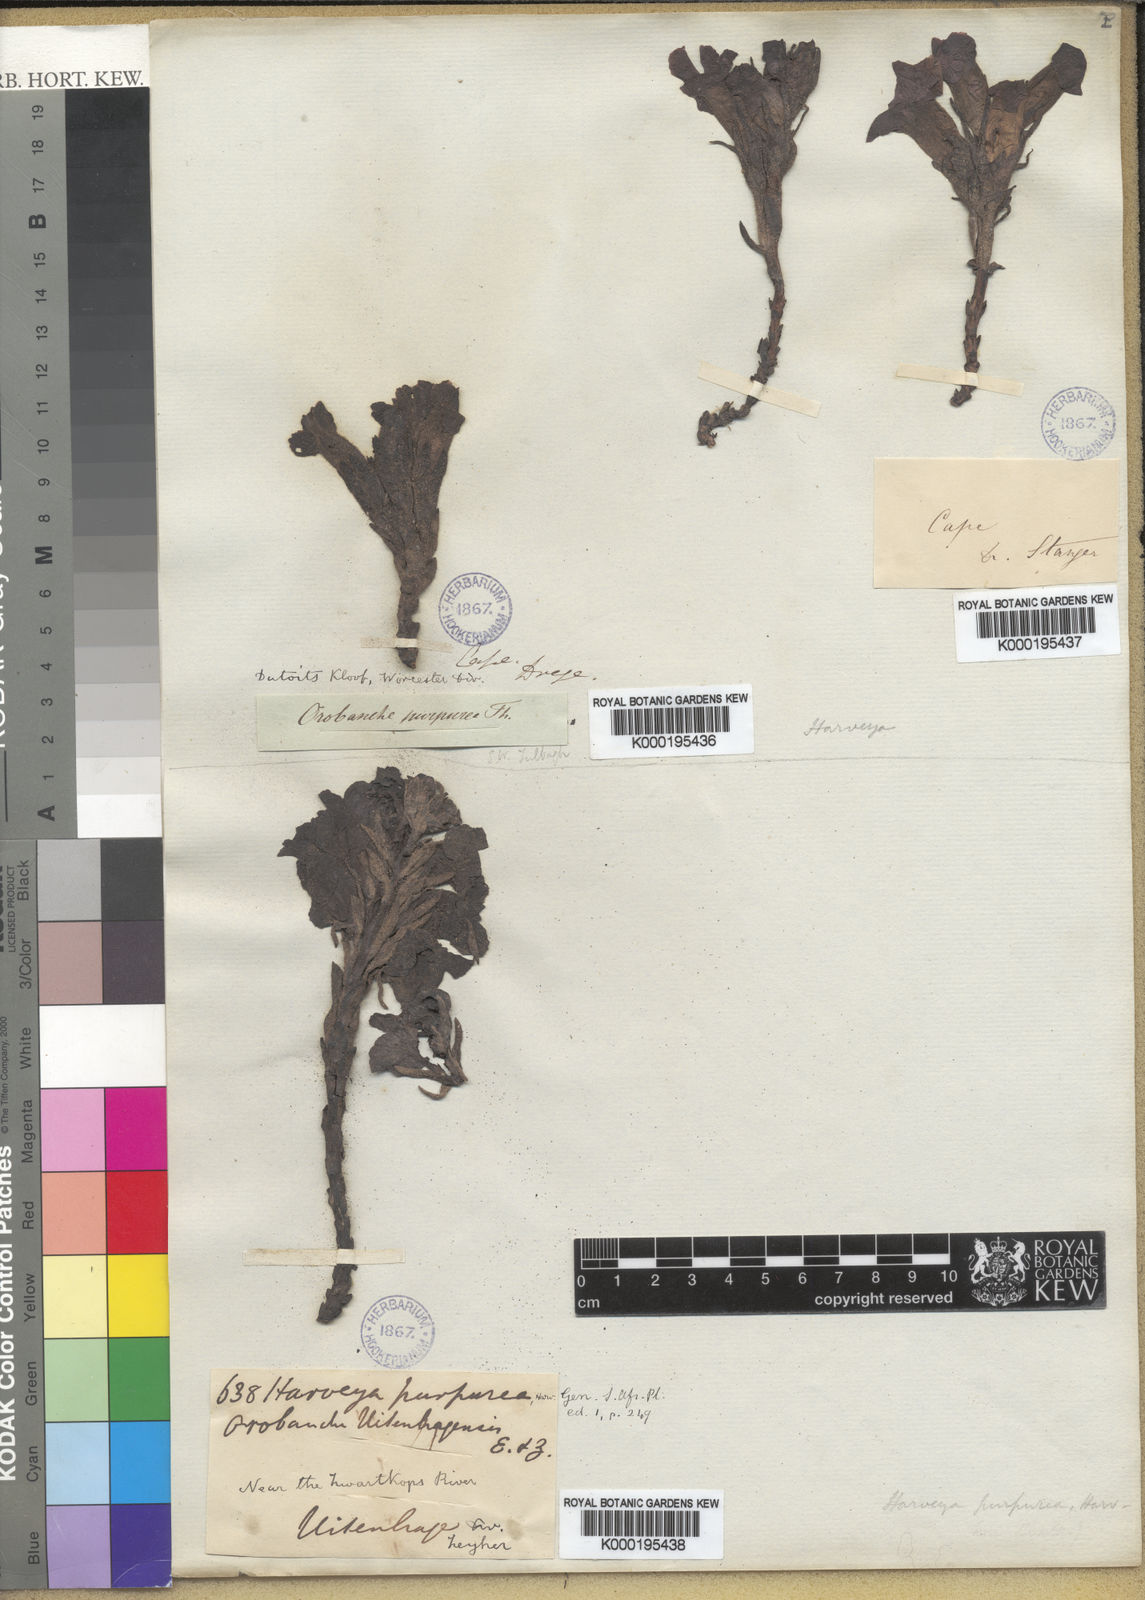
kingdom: Plantae
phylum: Tracheophyta
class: Magnoliopsida
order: Lamiales
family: Orobanchaceae
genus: Harveya
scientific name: Harveya purpurea
